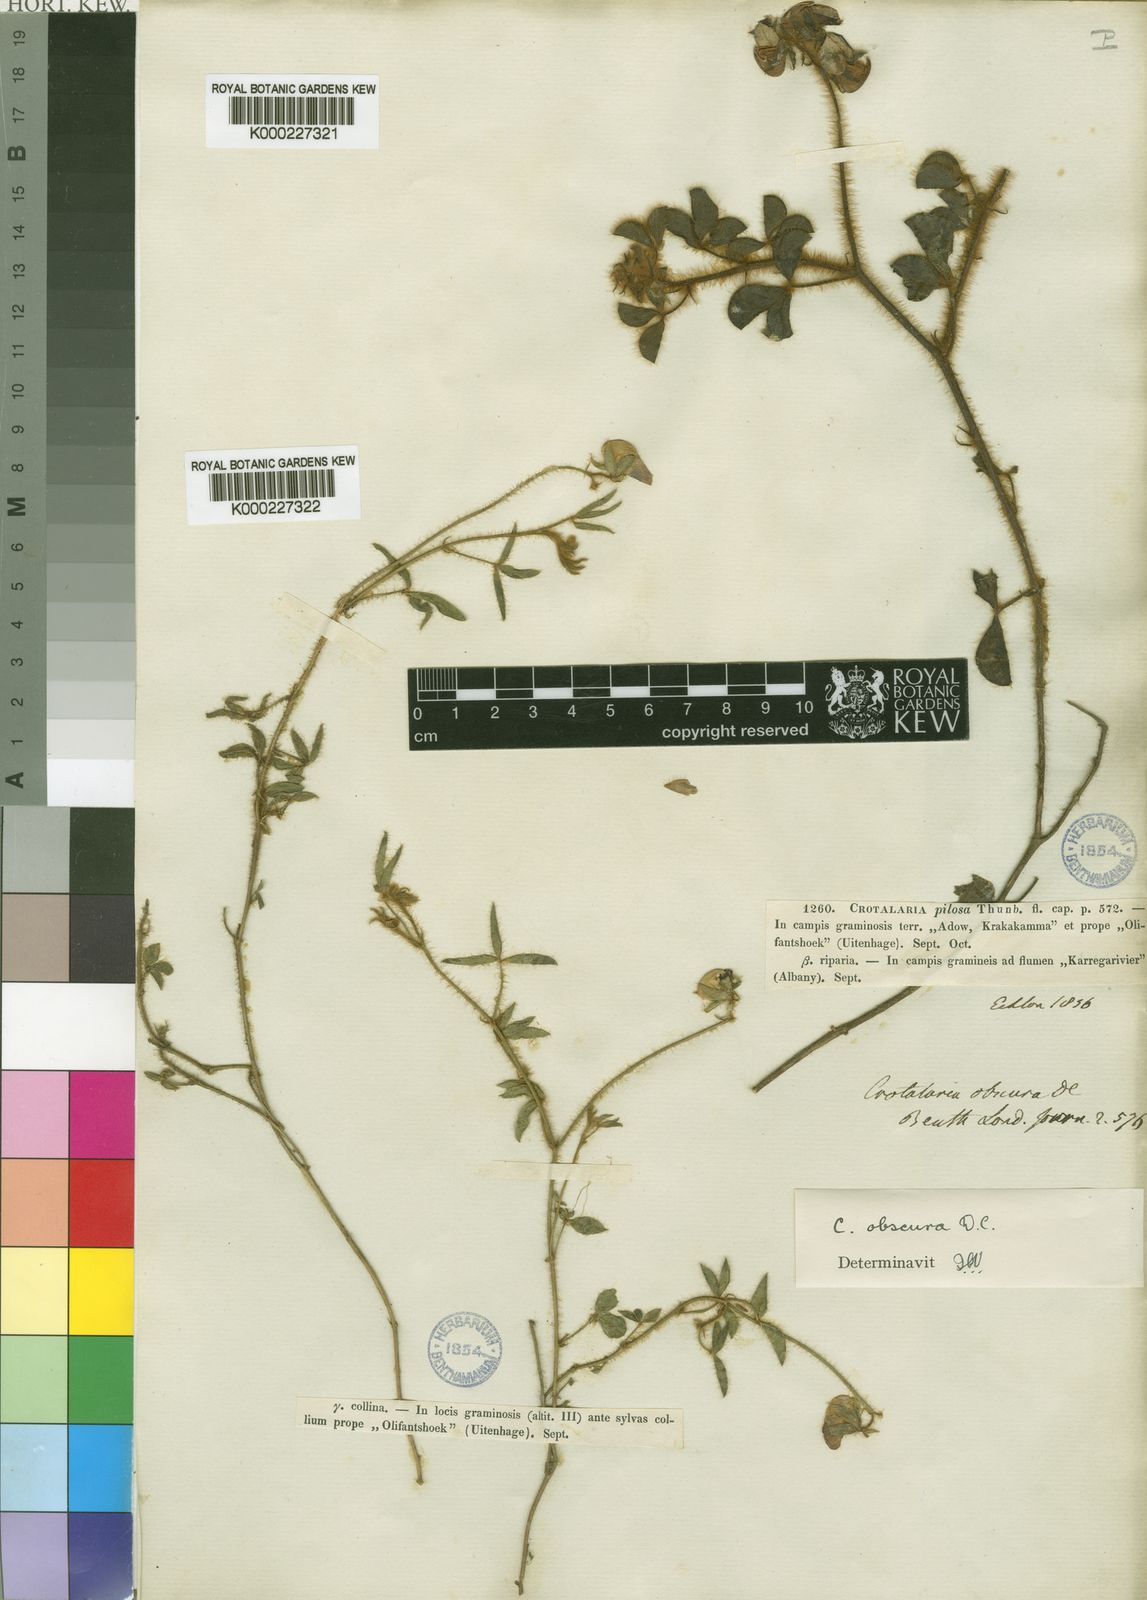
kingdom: Plantae
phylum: Tracheophyta
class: Magnoliopsida
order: Fabales
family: Fabaceae
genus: Crotalaria
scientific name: Crotalaria obscura
